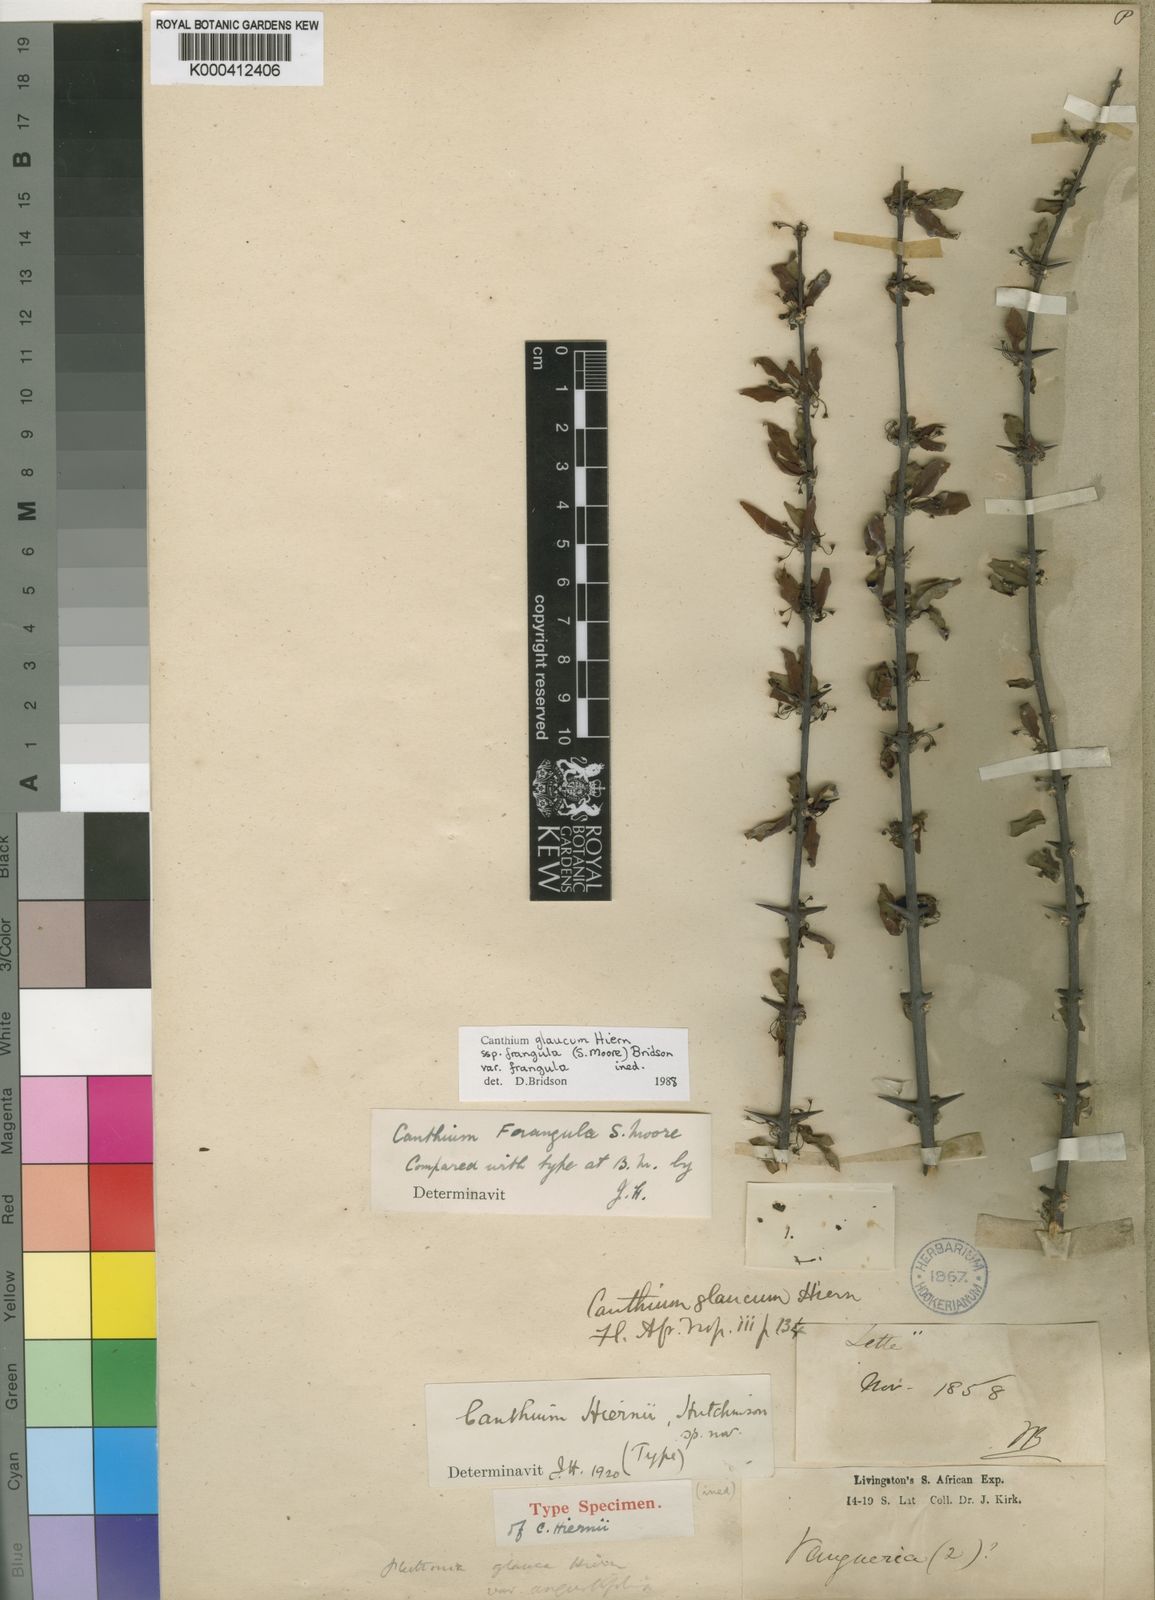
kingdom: Plantae
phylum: Tracheophyta
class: Magnoliopsida
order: Gentianales
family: Rubiaceae
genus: Canthium
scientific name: Canthium glaucum
